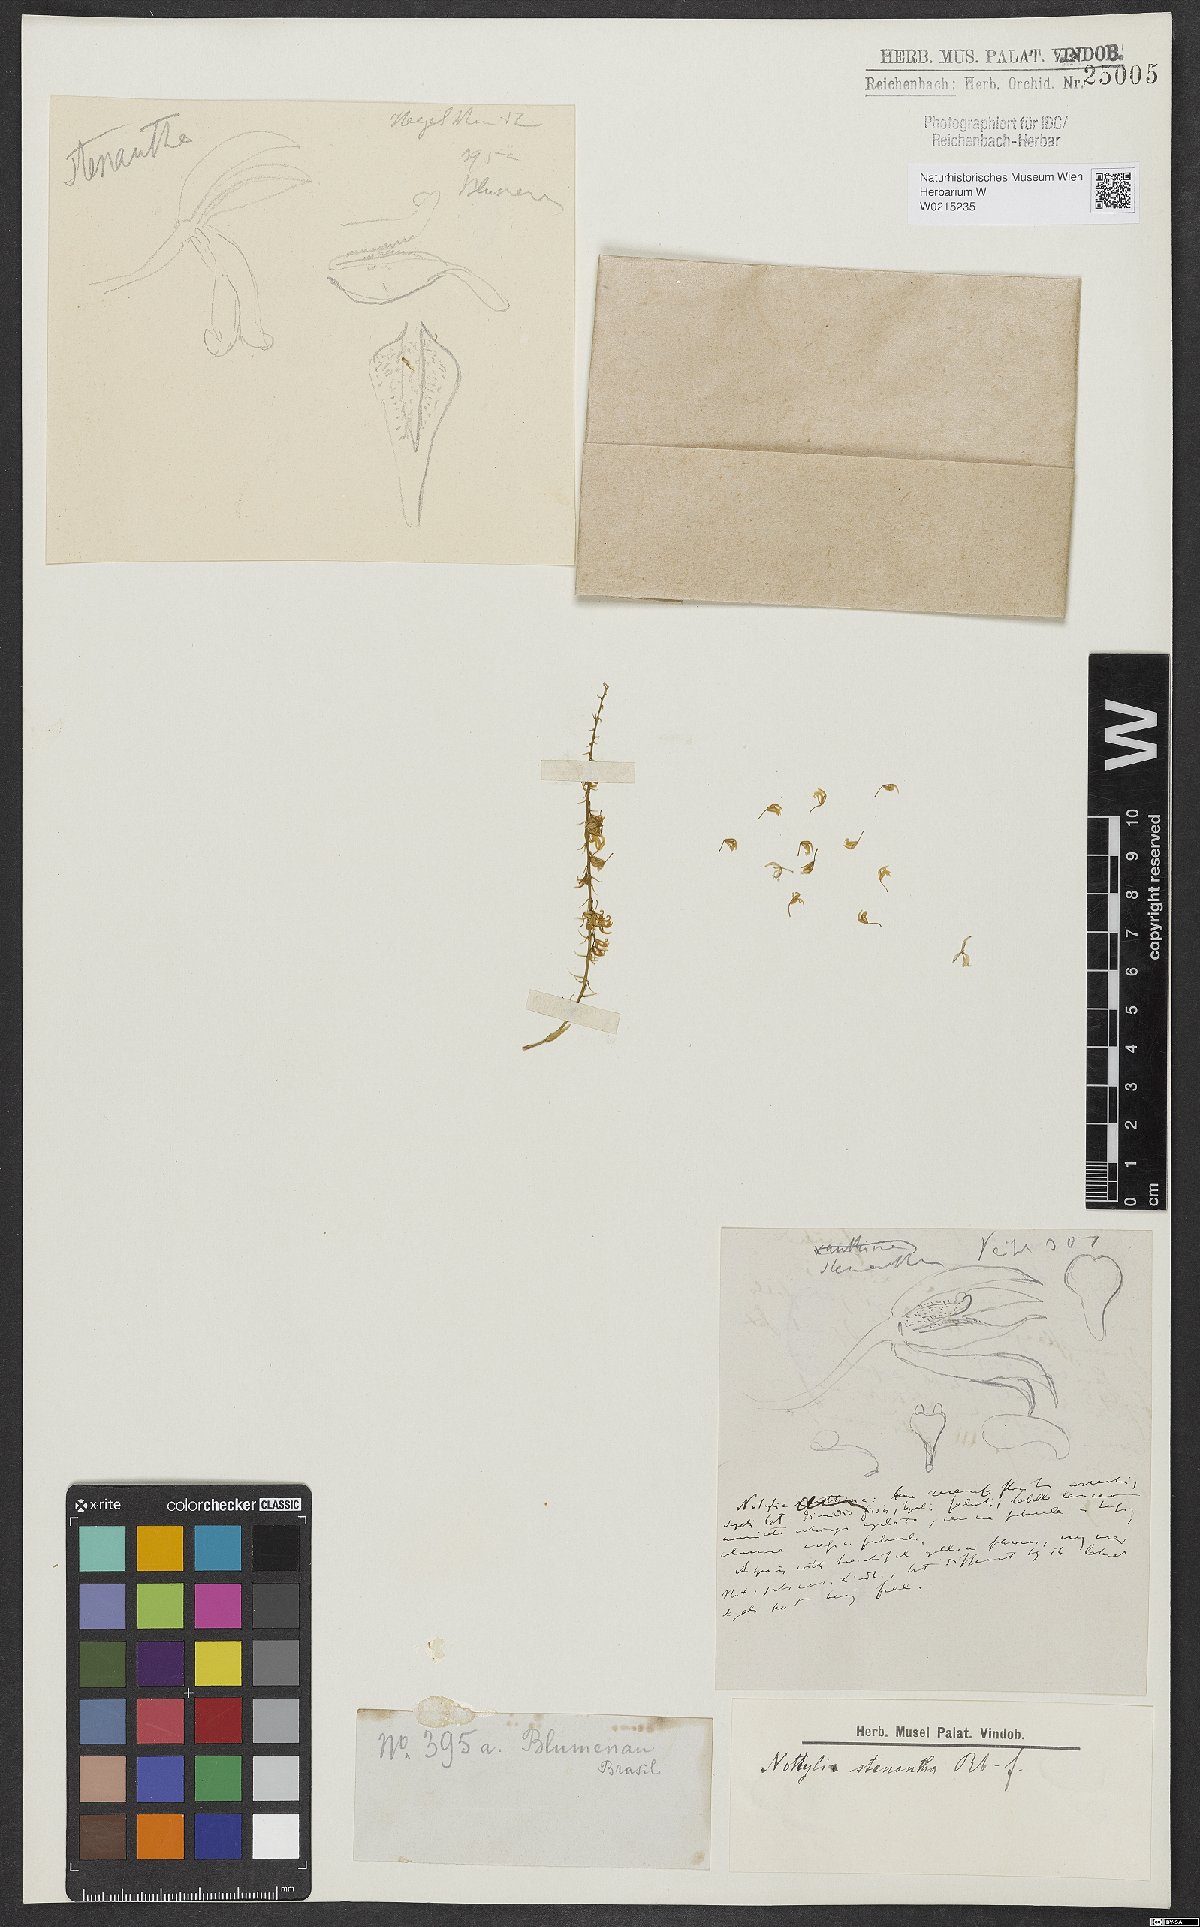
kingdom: Plantae
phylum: Tracheophyta
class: Liliopsida
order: Asparagales
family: Orchidaceae
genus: Notylia
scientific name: Notylia stenantha
